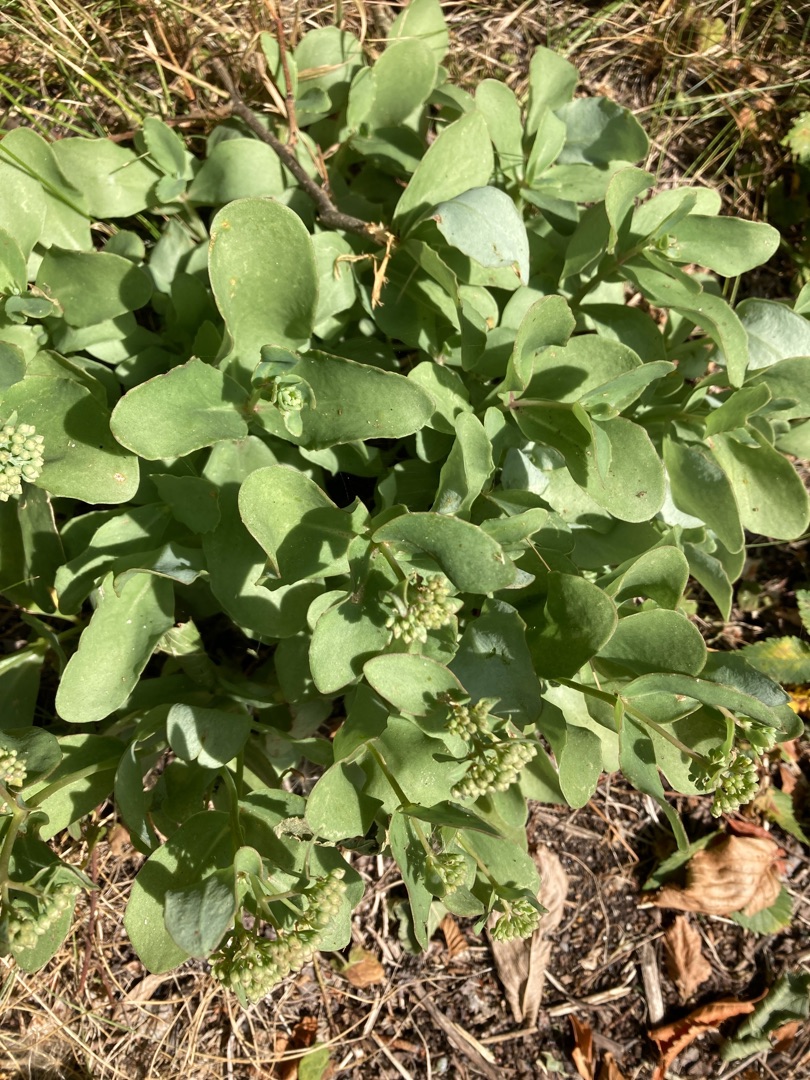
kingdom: Plantae
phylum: Tracheophyta
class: Magnoliopsida
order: Saxifragales
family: Crassulaceae
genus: Hylotelephium
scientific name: Hylotelephium maximum
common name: Almindelig sankthansurt
